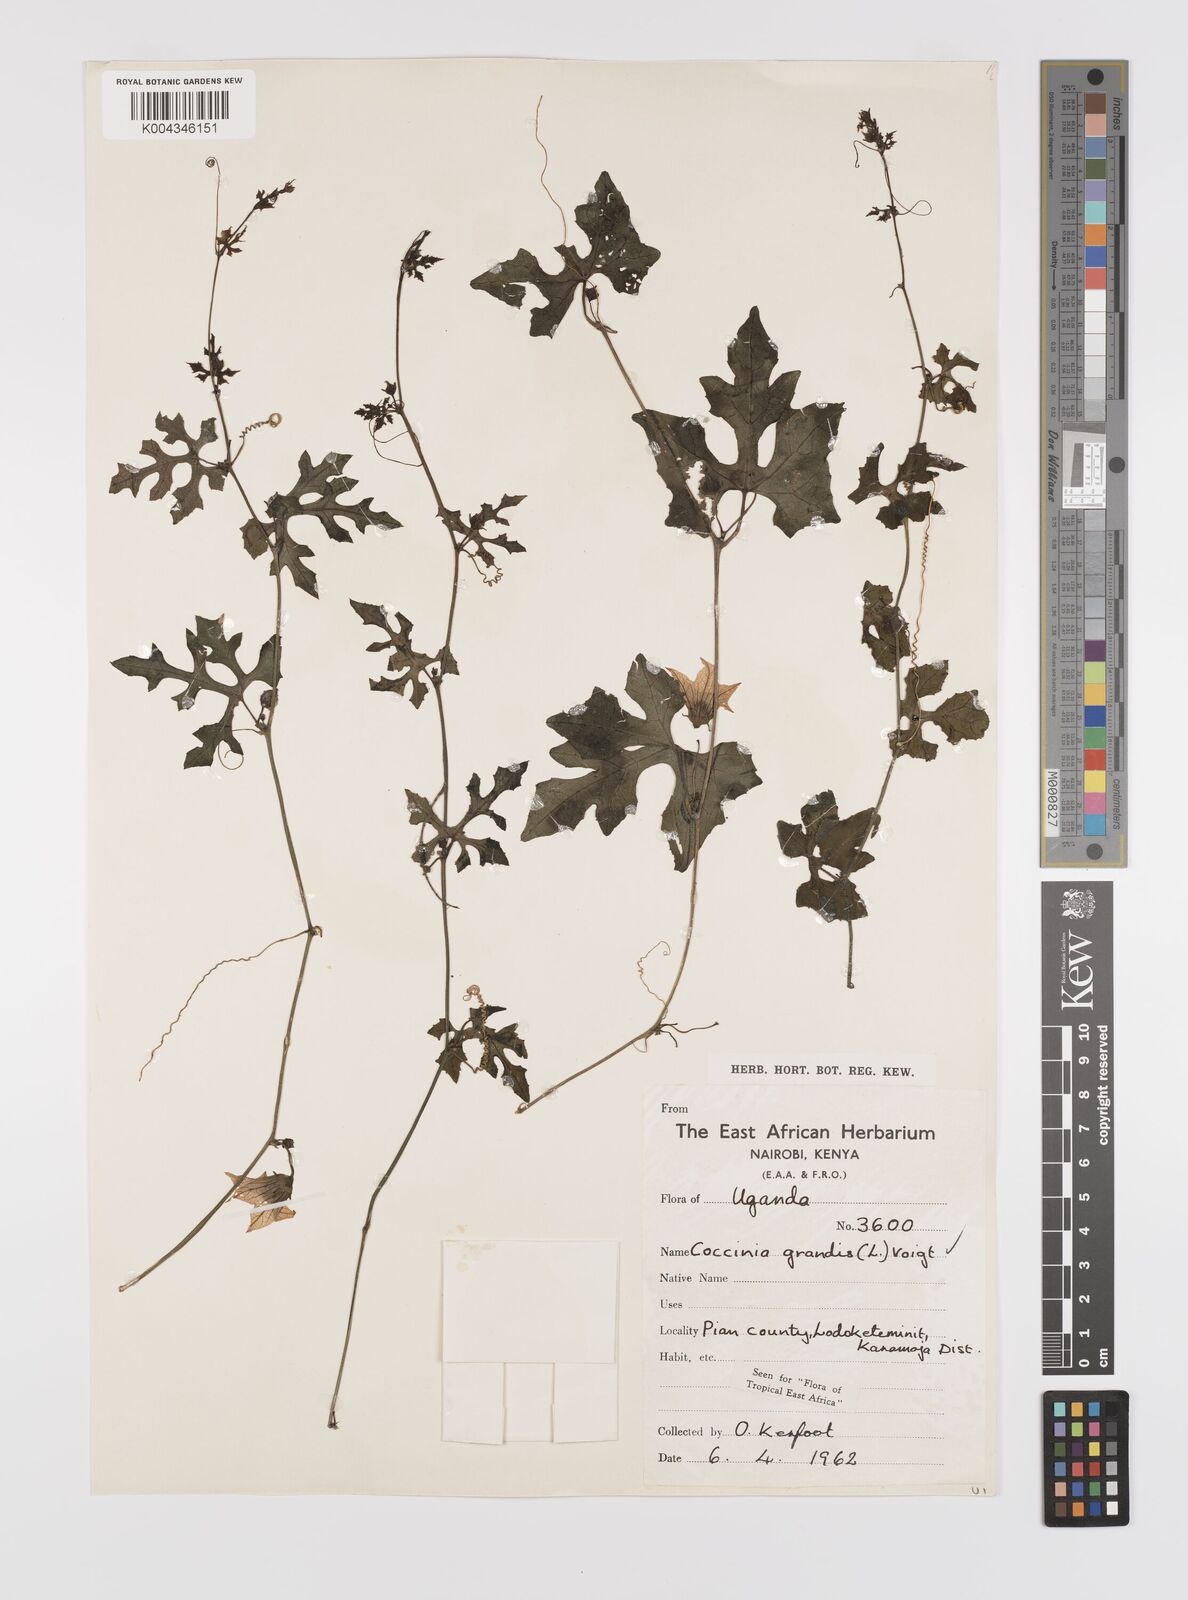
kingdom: Plantae
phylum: Tracheophyta
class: Magnoliopsida
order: Cucurbitales
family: Cucurbitaceae
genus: Coccinia
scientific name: Coccinia grandis
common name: Ivy gourd
